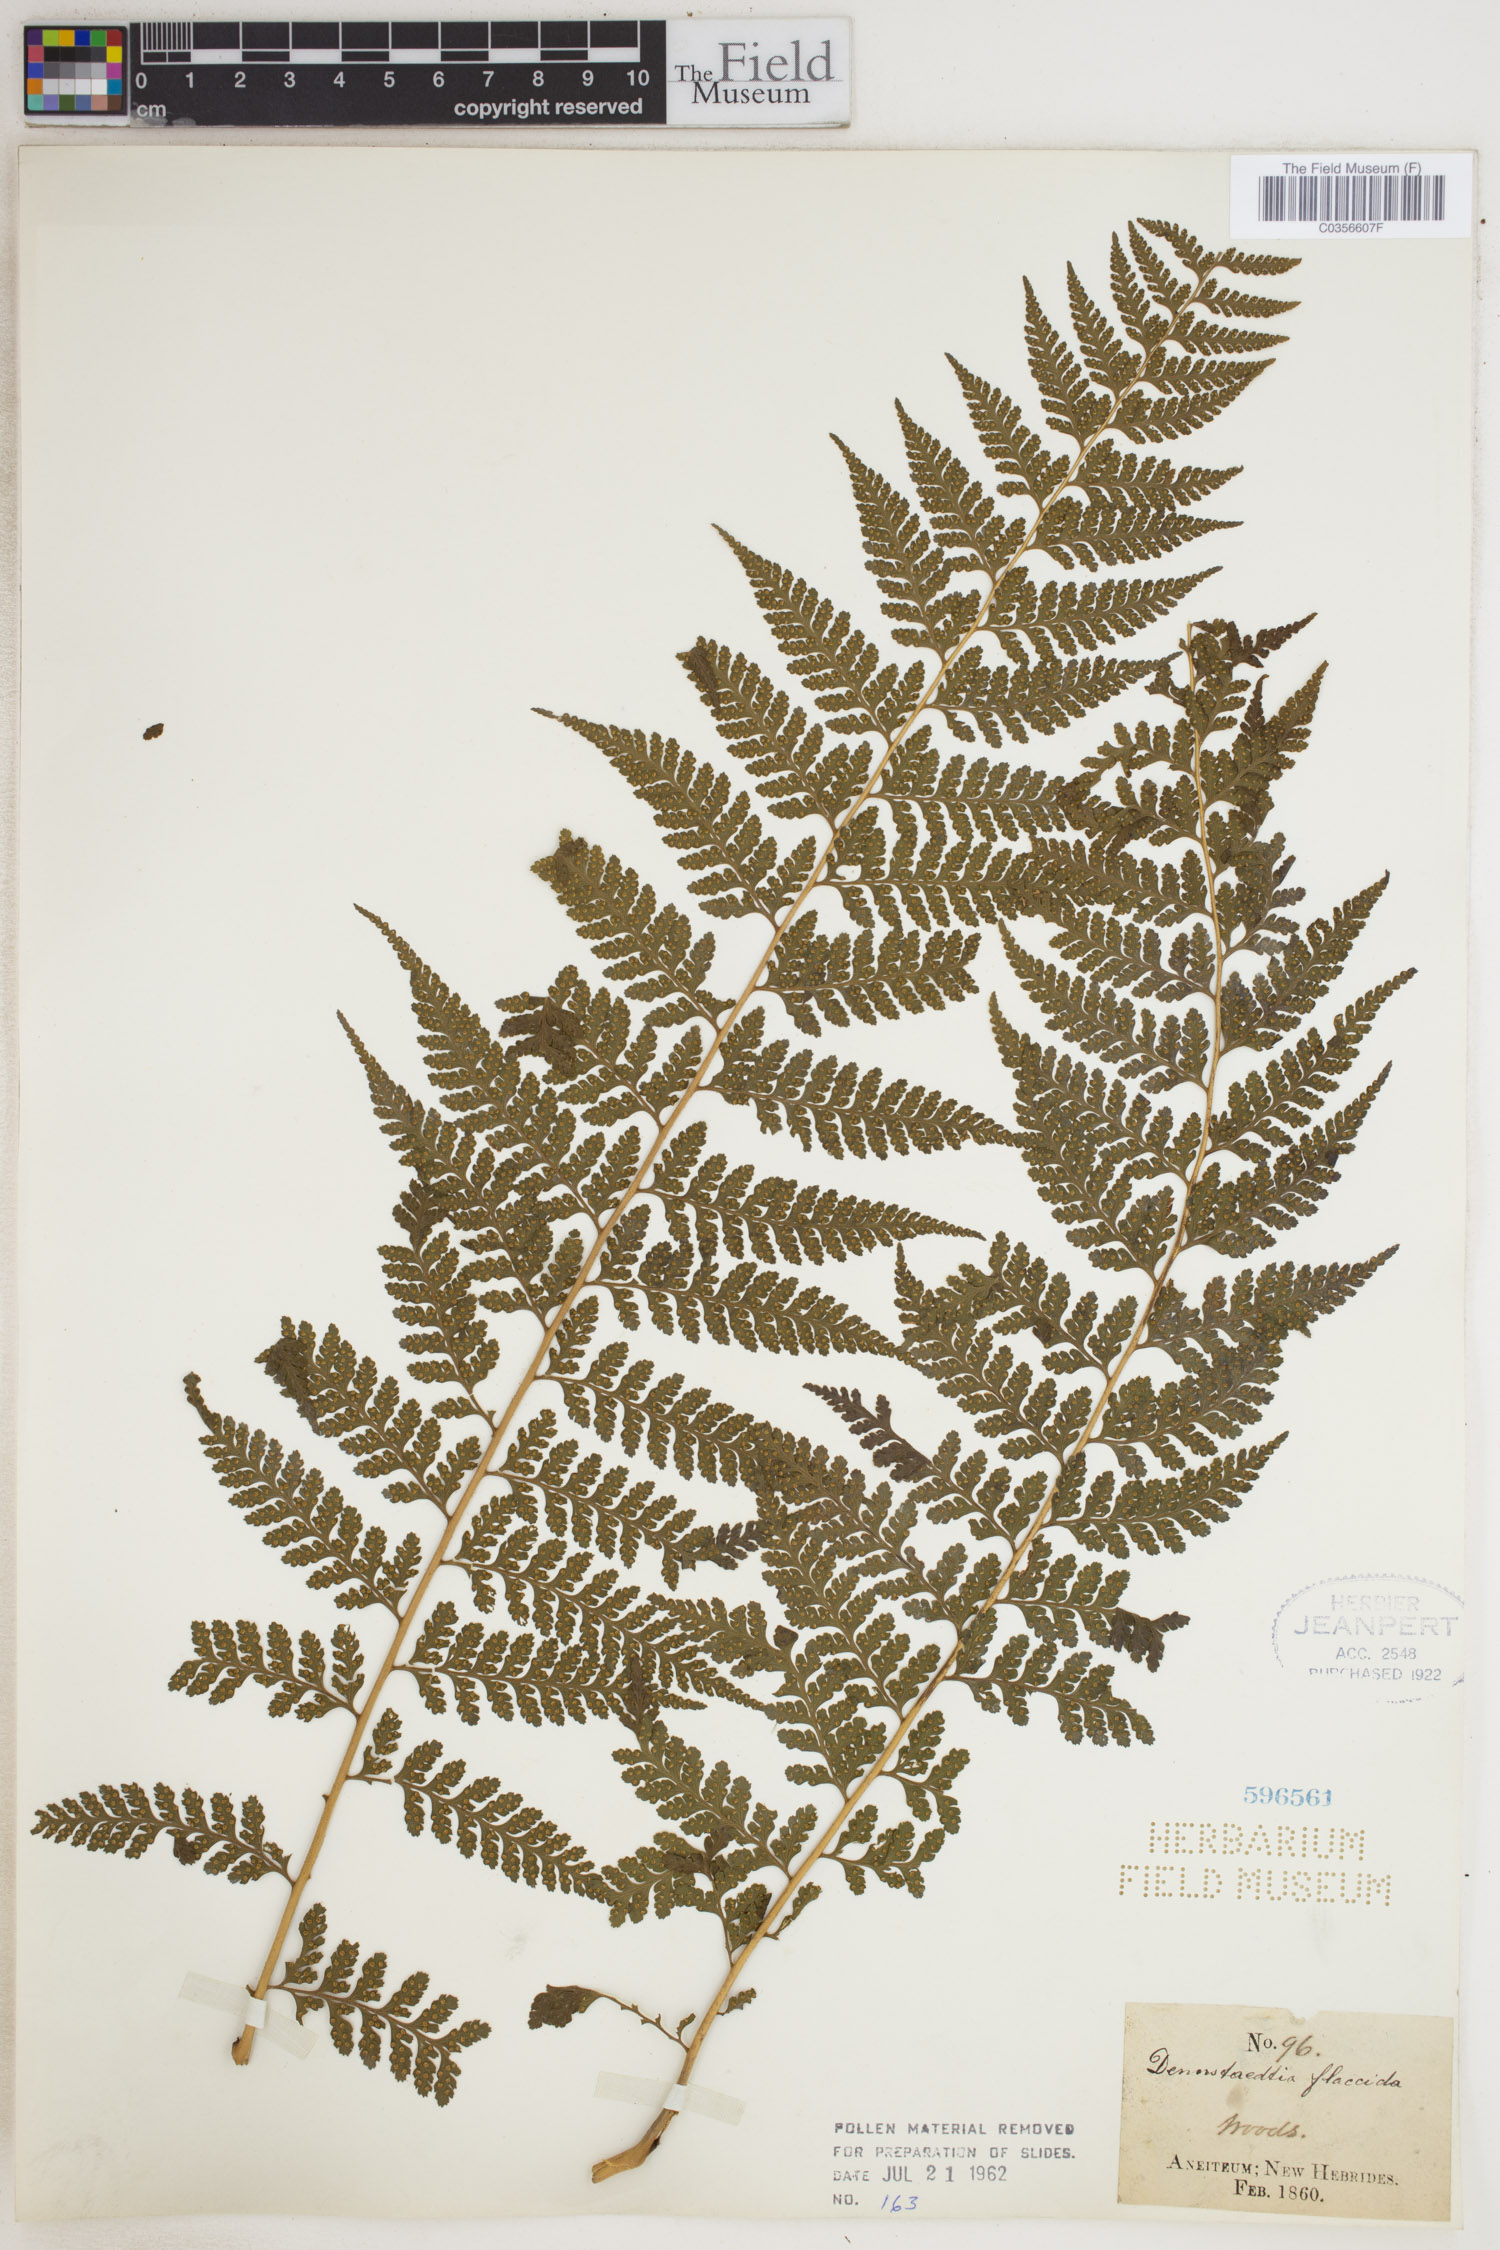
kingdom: Plantae
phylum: Tracheophyta
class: Polypodiopsida
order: Polypodiales
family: Dennstaedtiaceae
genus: Dennstaedtia
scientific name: Dennstaedtia flaccida
